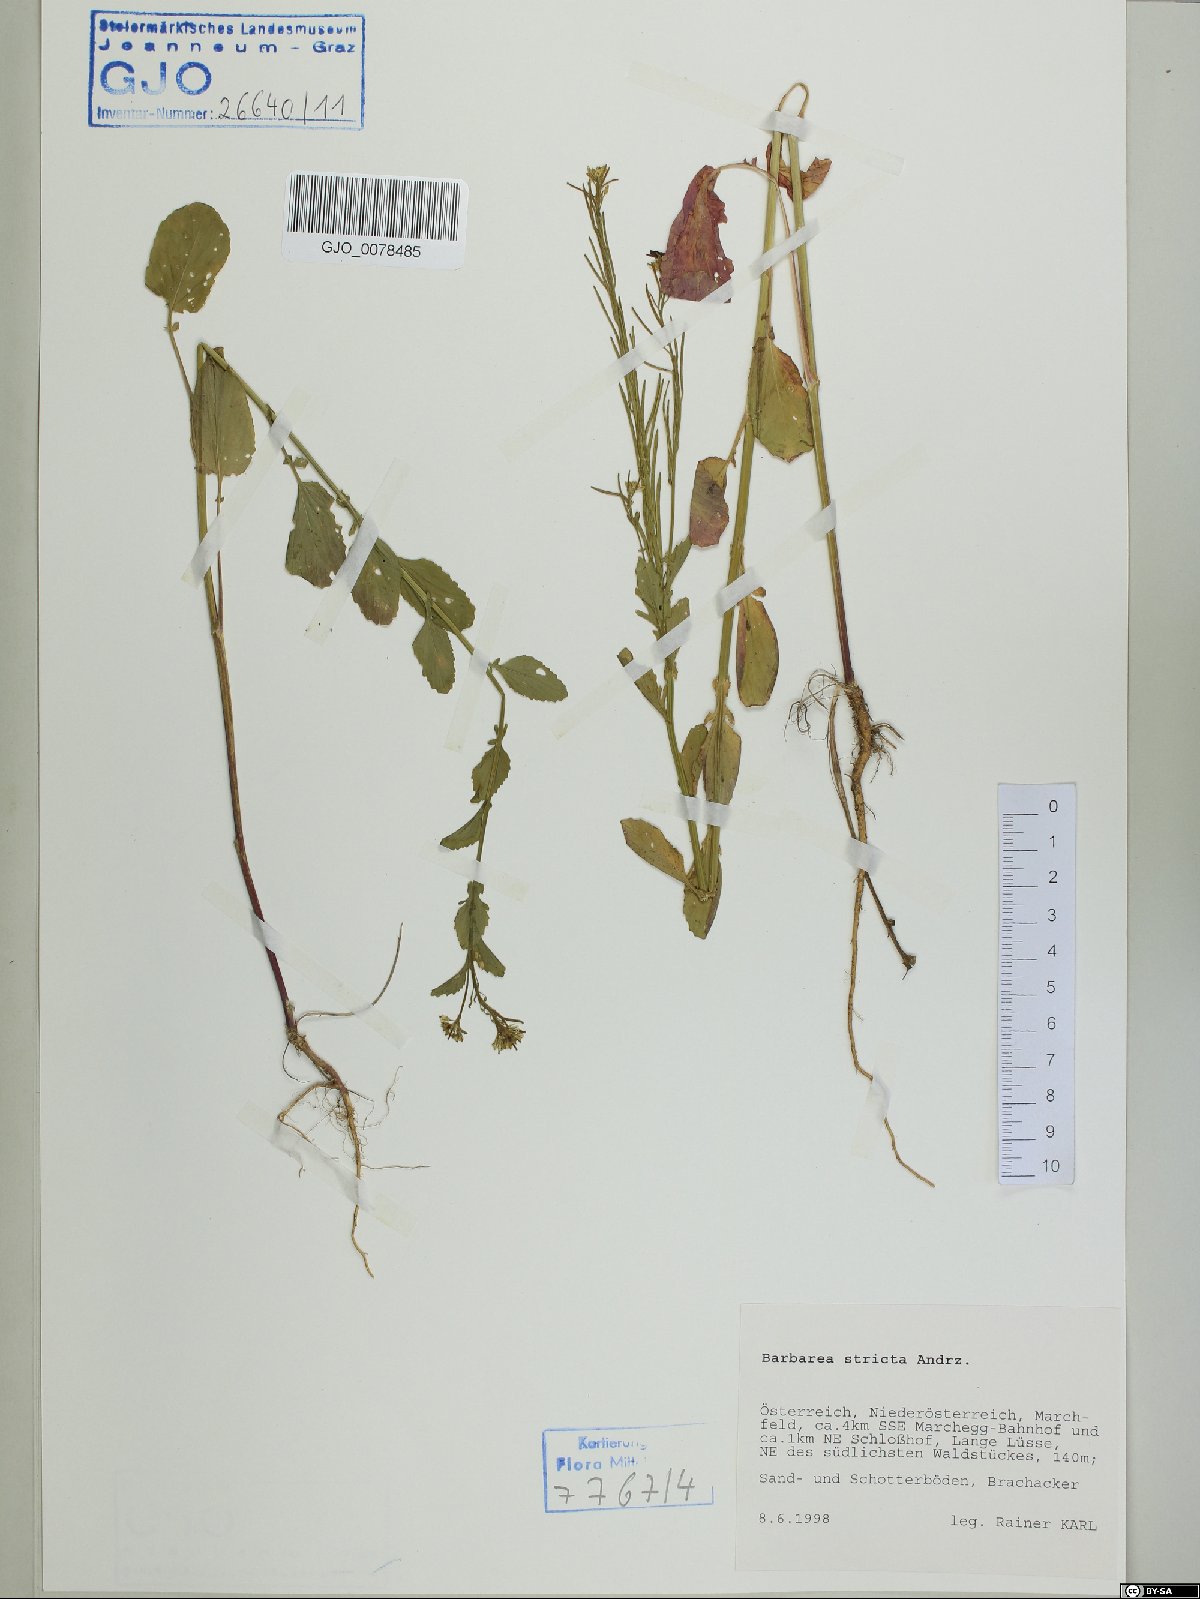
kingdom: Plantae
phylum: Tracheophyta
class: Magnoliopsida
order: Brassicales
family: Brassicaceae
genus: Barbarea
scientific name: Barbarea stricta
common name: Small-flowered winter-cress
